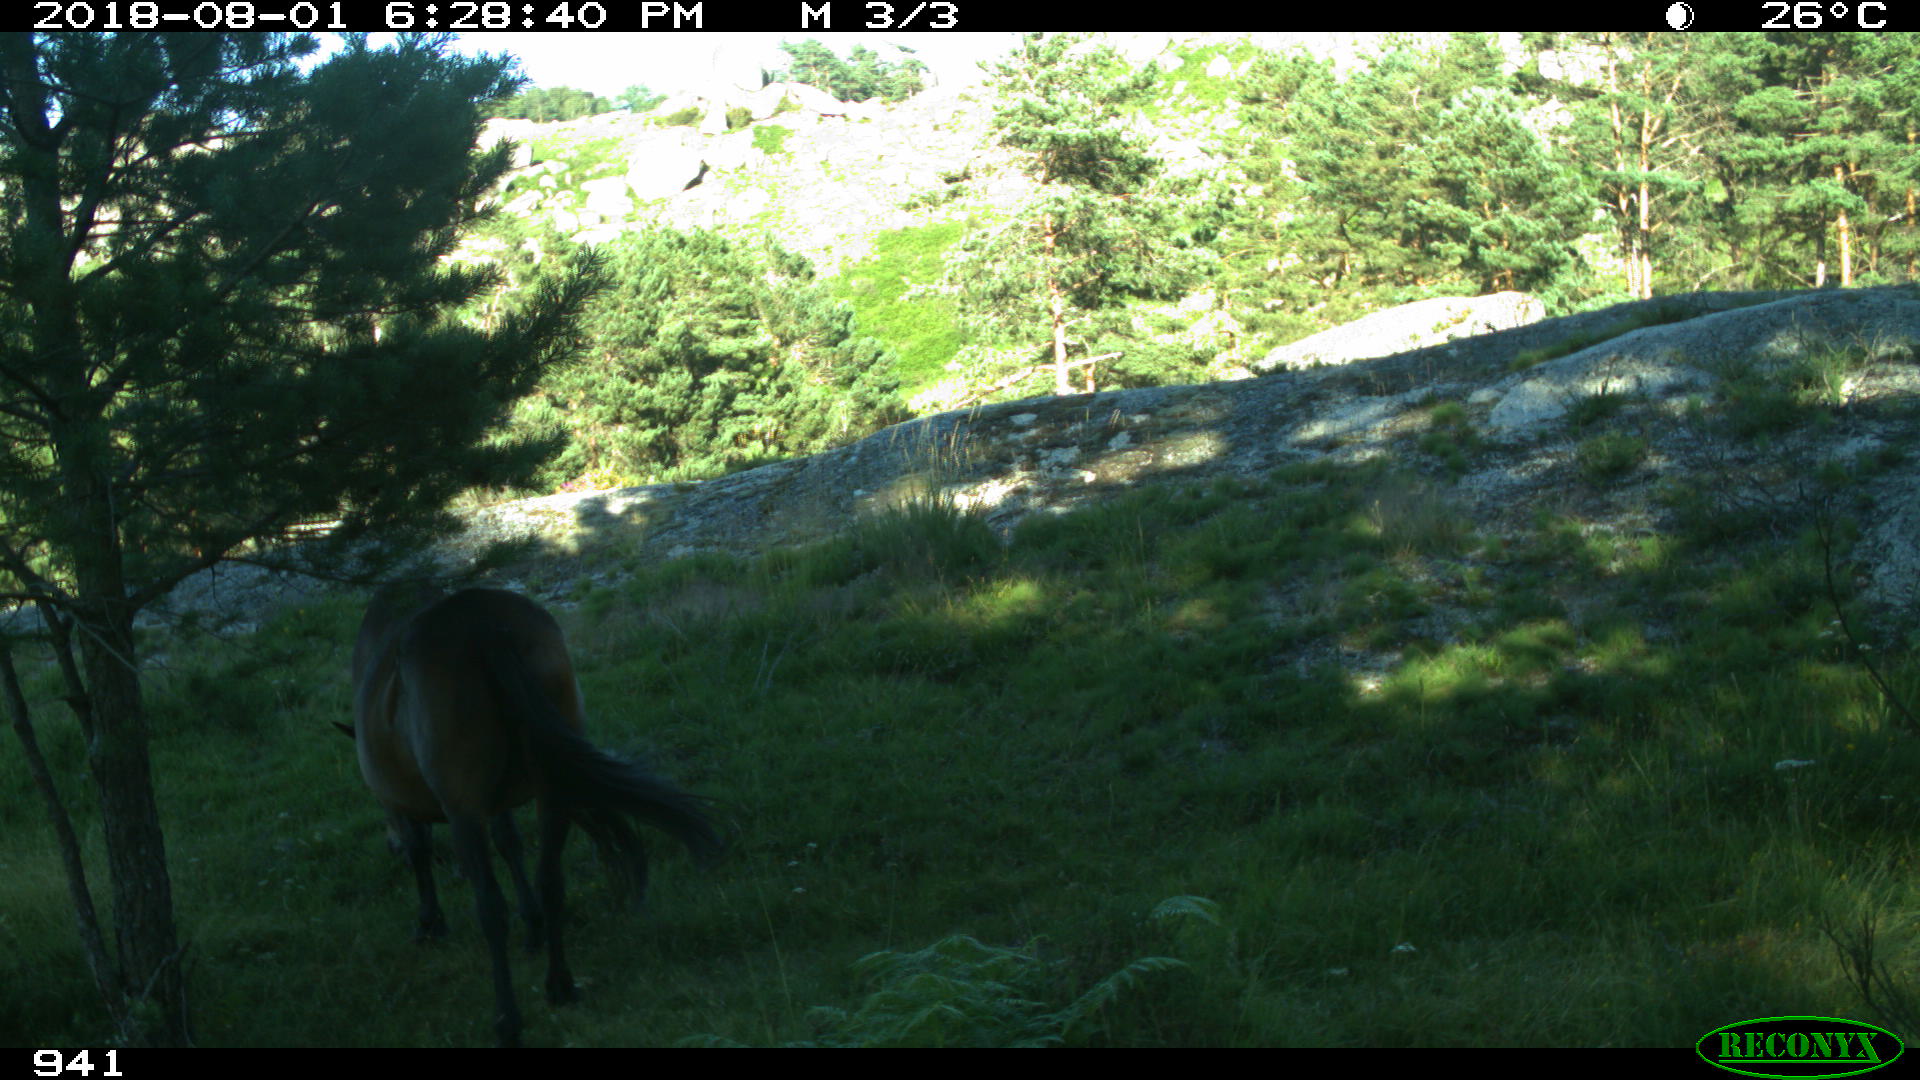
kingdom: Animalia
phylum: Chordata
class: Mammalia
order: Perissodactyla
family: Equidae
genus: Equus
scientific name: Equus caballus
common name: Horse
